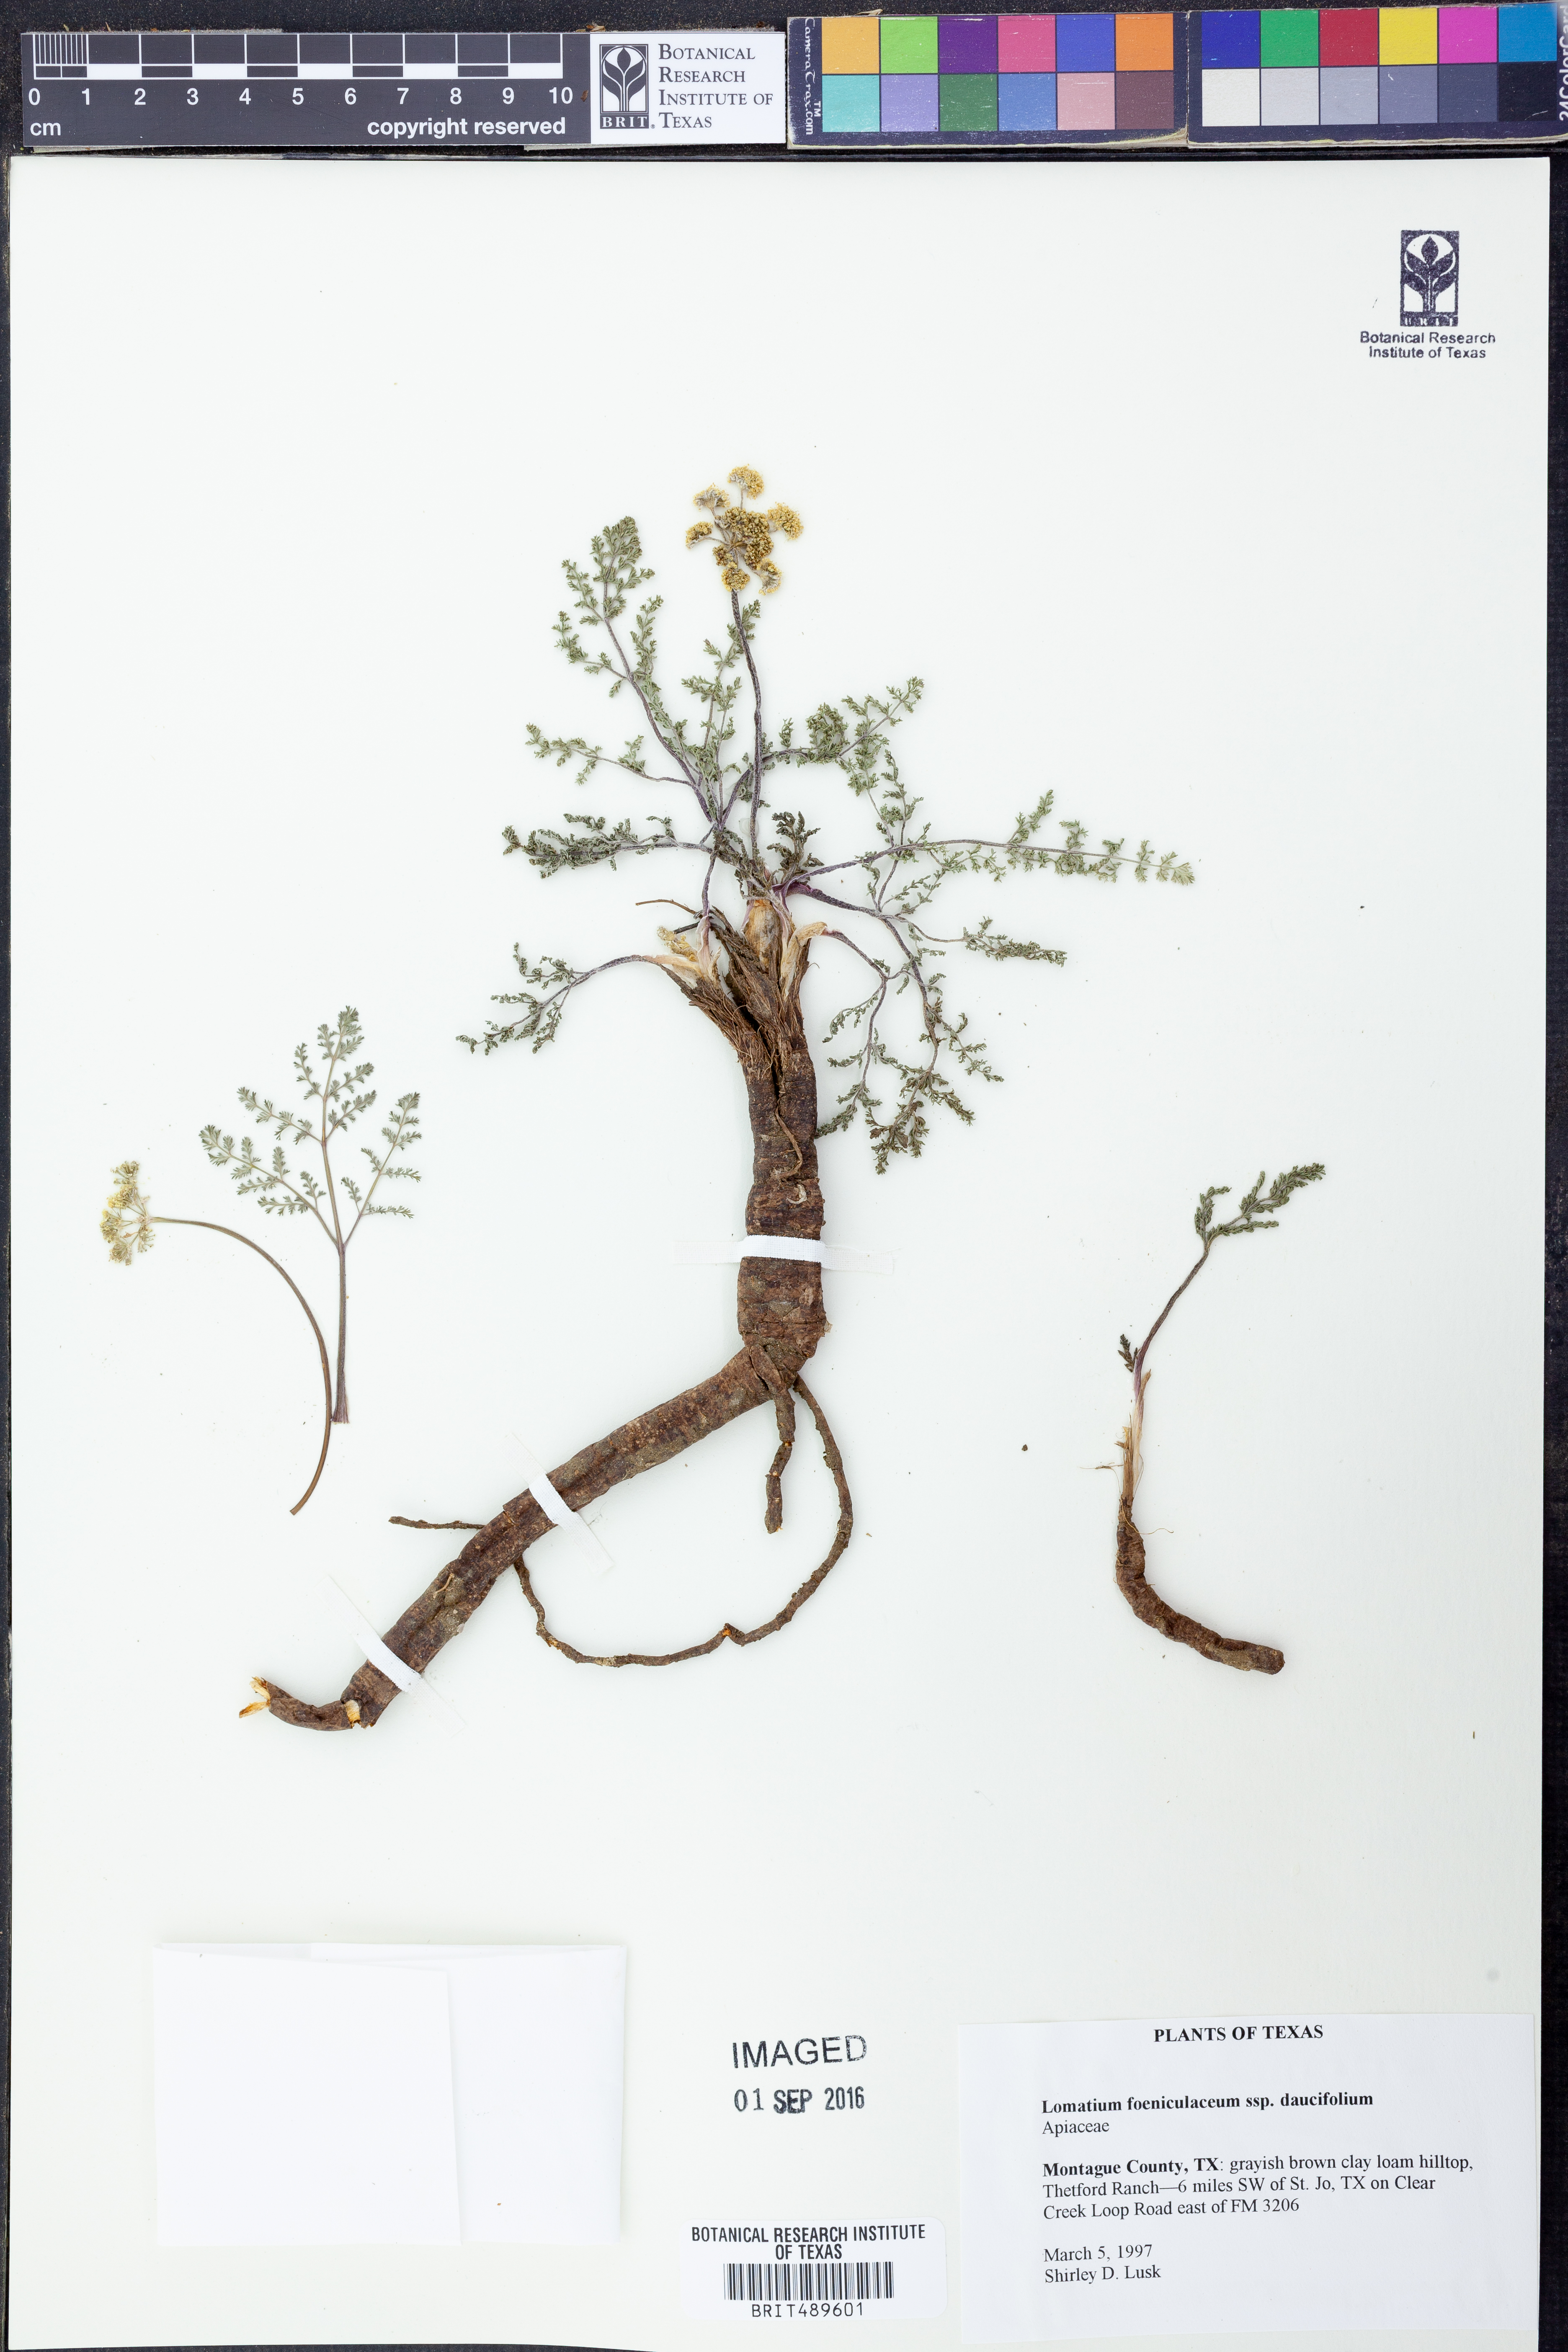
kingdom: Plantae
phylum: Tracheophyta
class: Magnoliopsida
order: Apiales
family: Apiaceae
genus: Lomatium
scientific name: Lomatium foeniculaceum
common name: Desert-parsley
